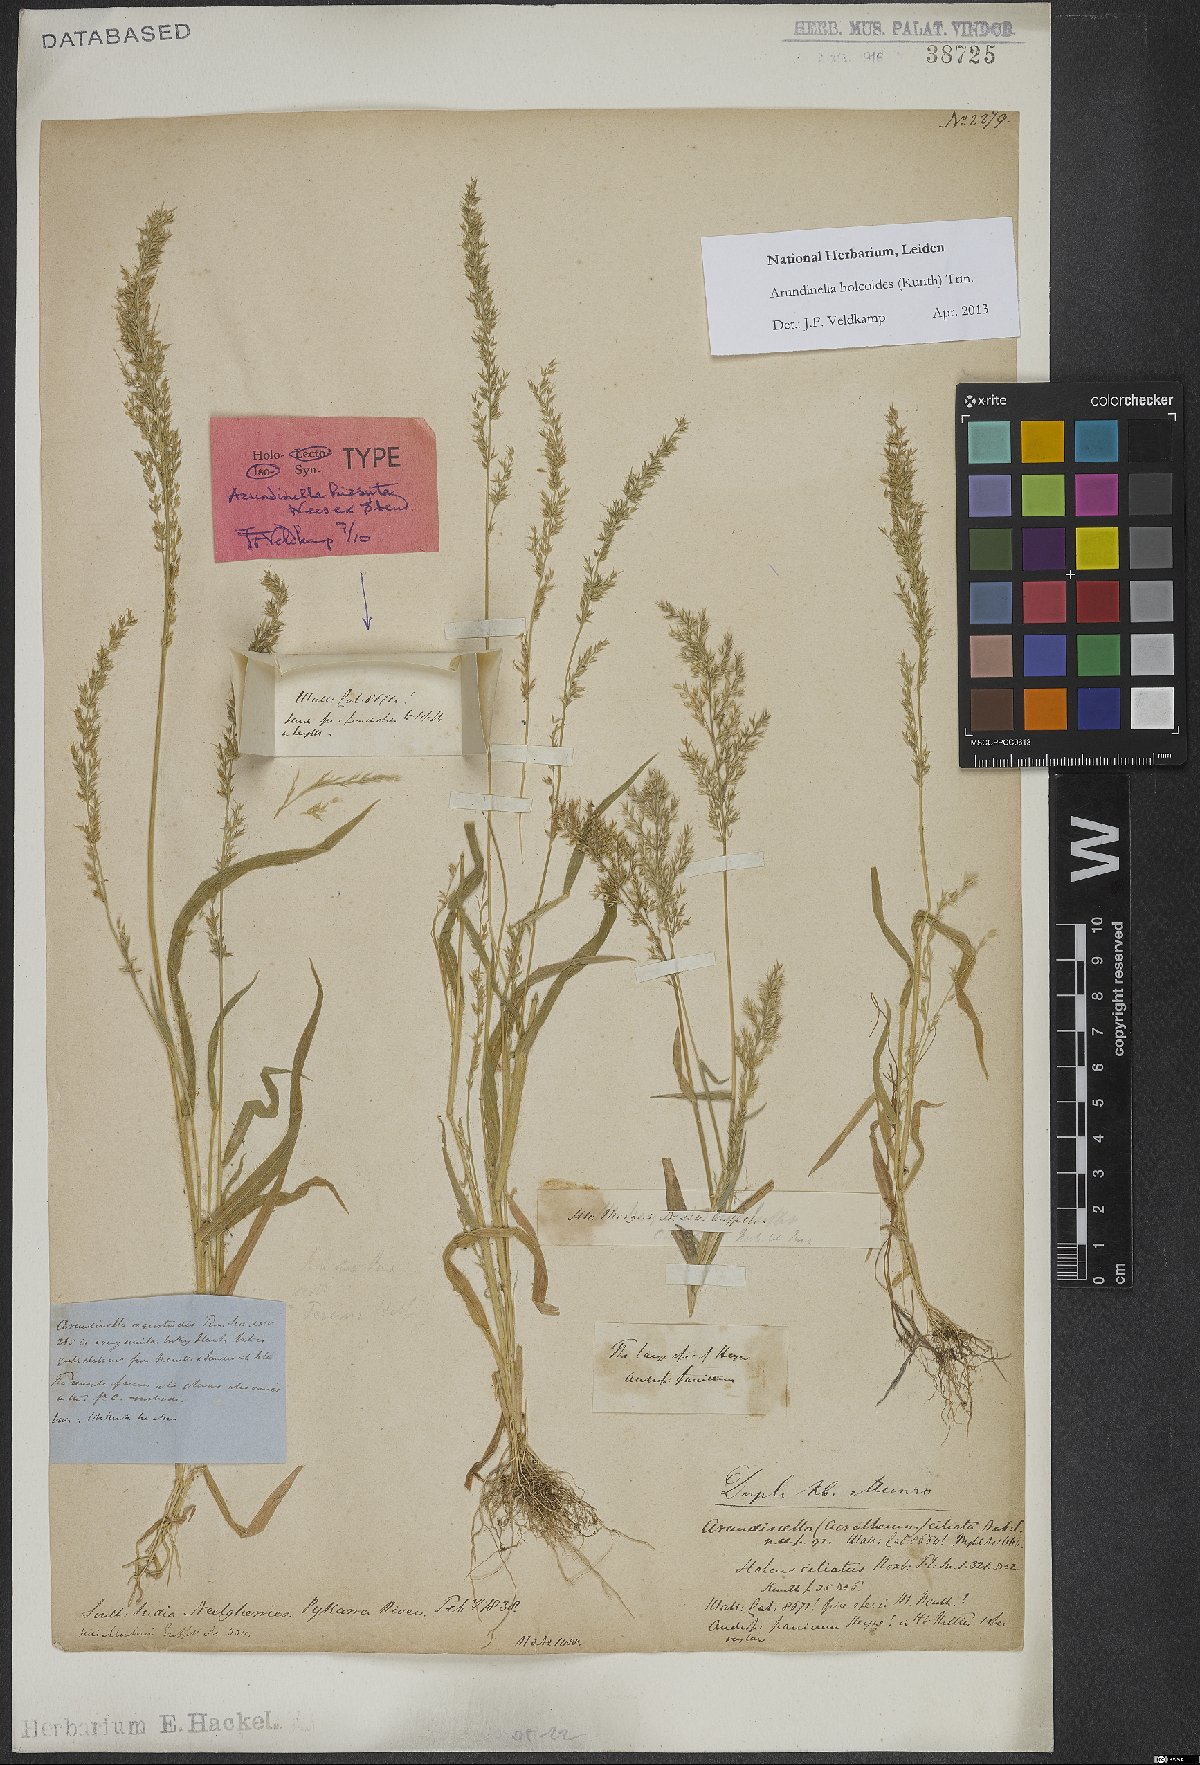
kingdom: Plantae
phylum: Tracheophyta
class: Liliopsida
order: Poales
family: Poaceae
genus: Arundinella
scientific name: Arundinella holcoides
